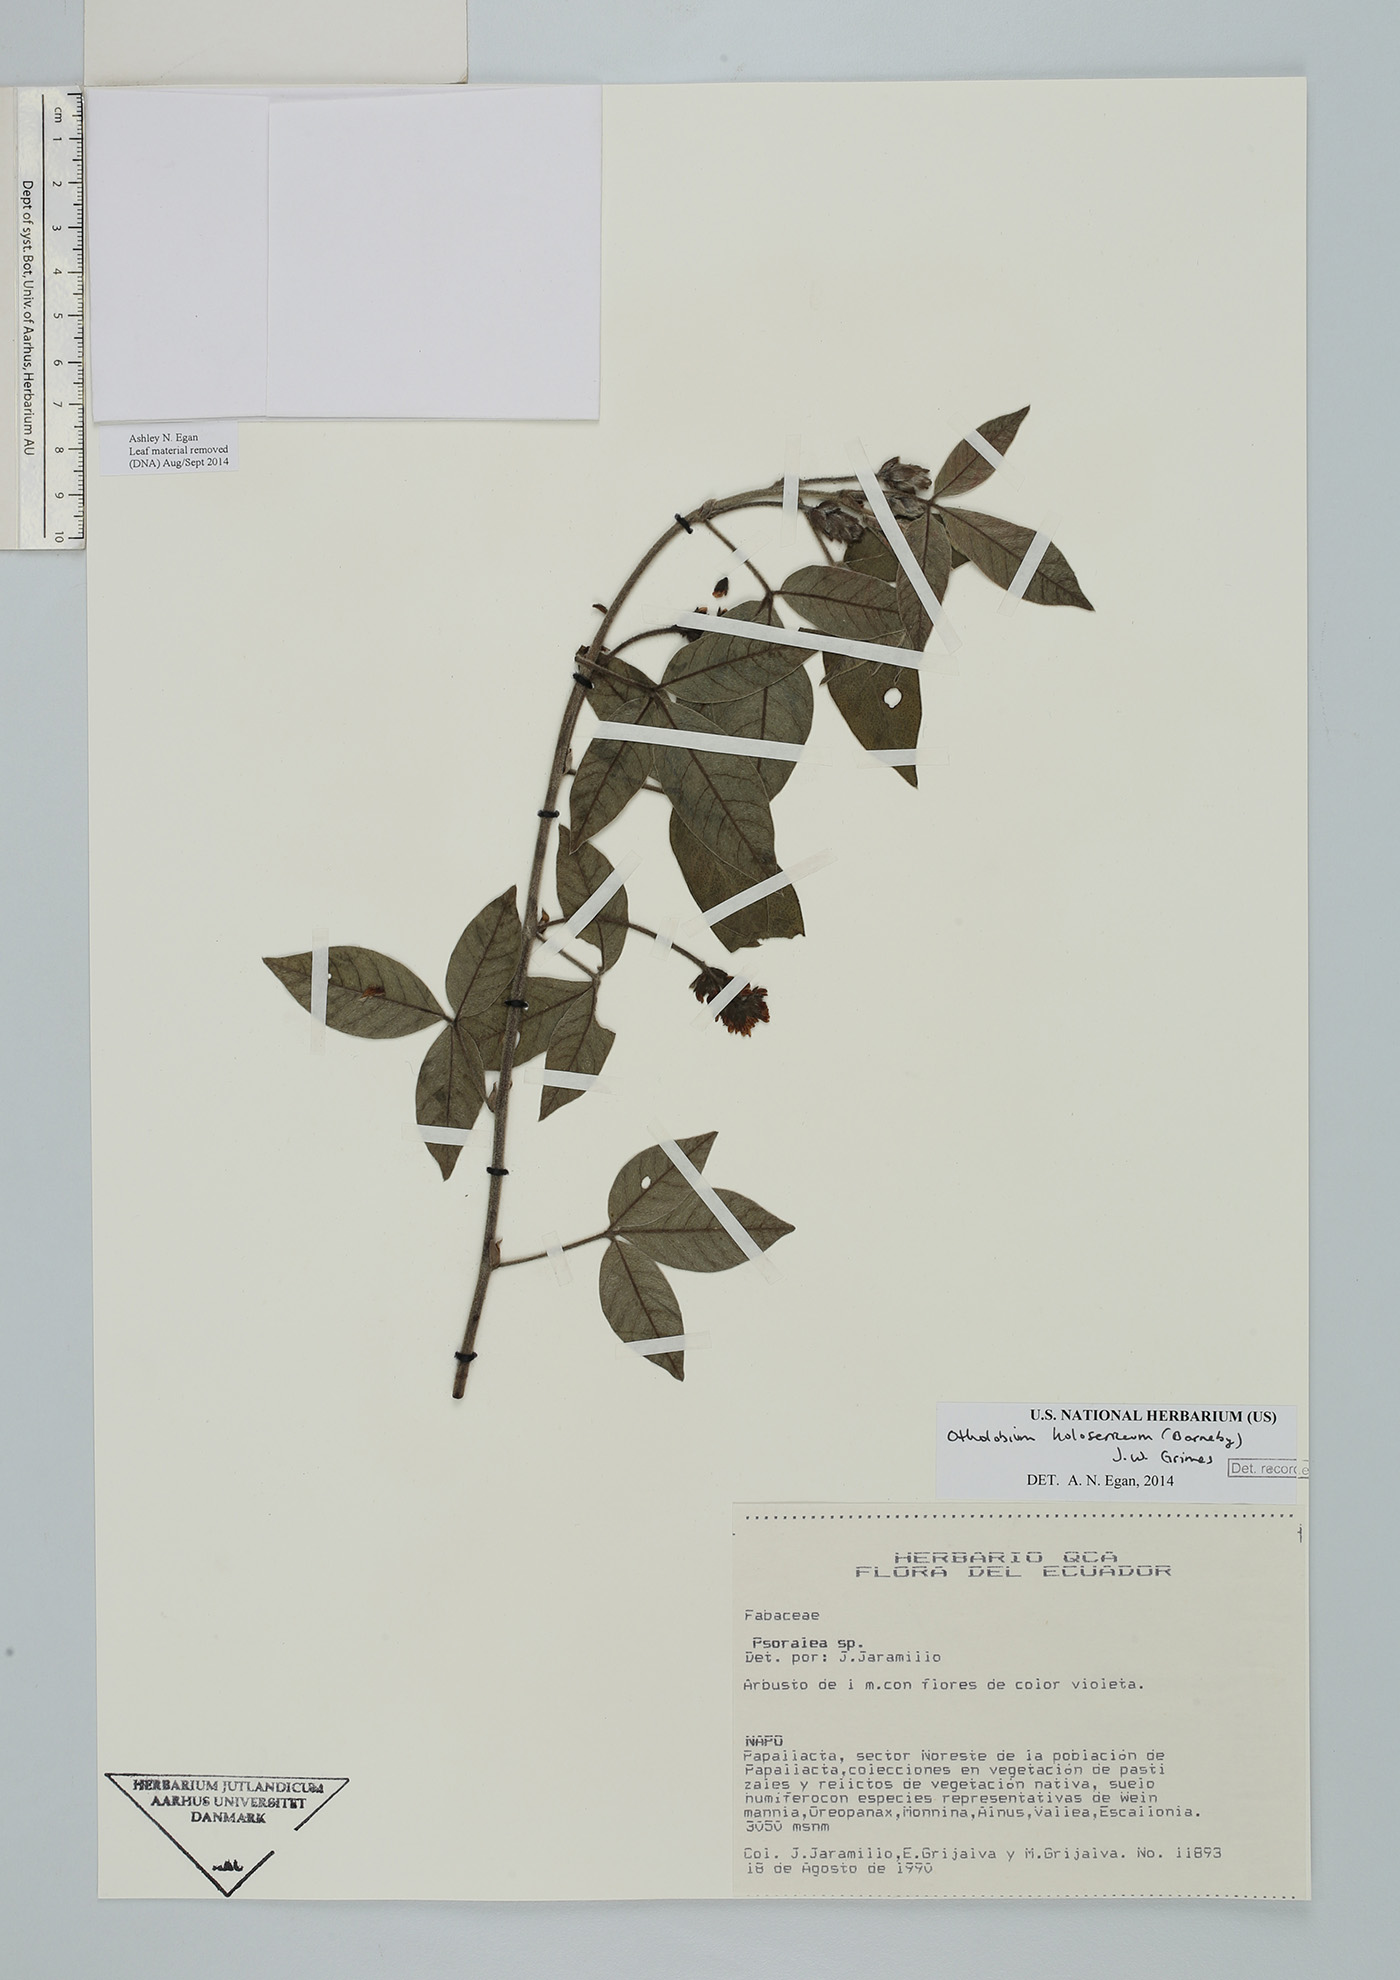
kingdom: Plantae
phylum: Tracheophyta
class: Magnoliopsida
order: Fabales
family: Fabaceae
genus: Psoralea
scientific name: Psoralea Otholobium holosericeum
